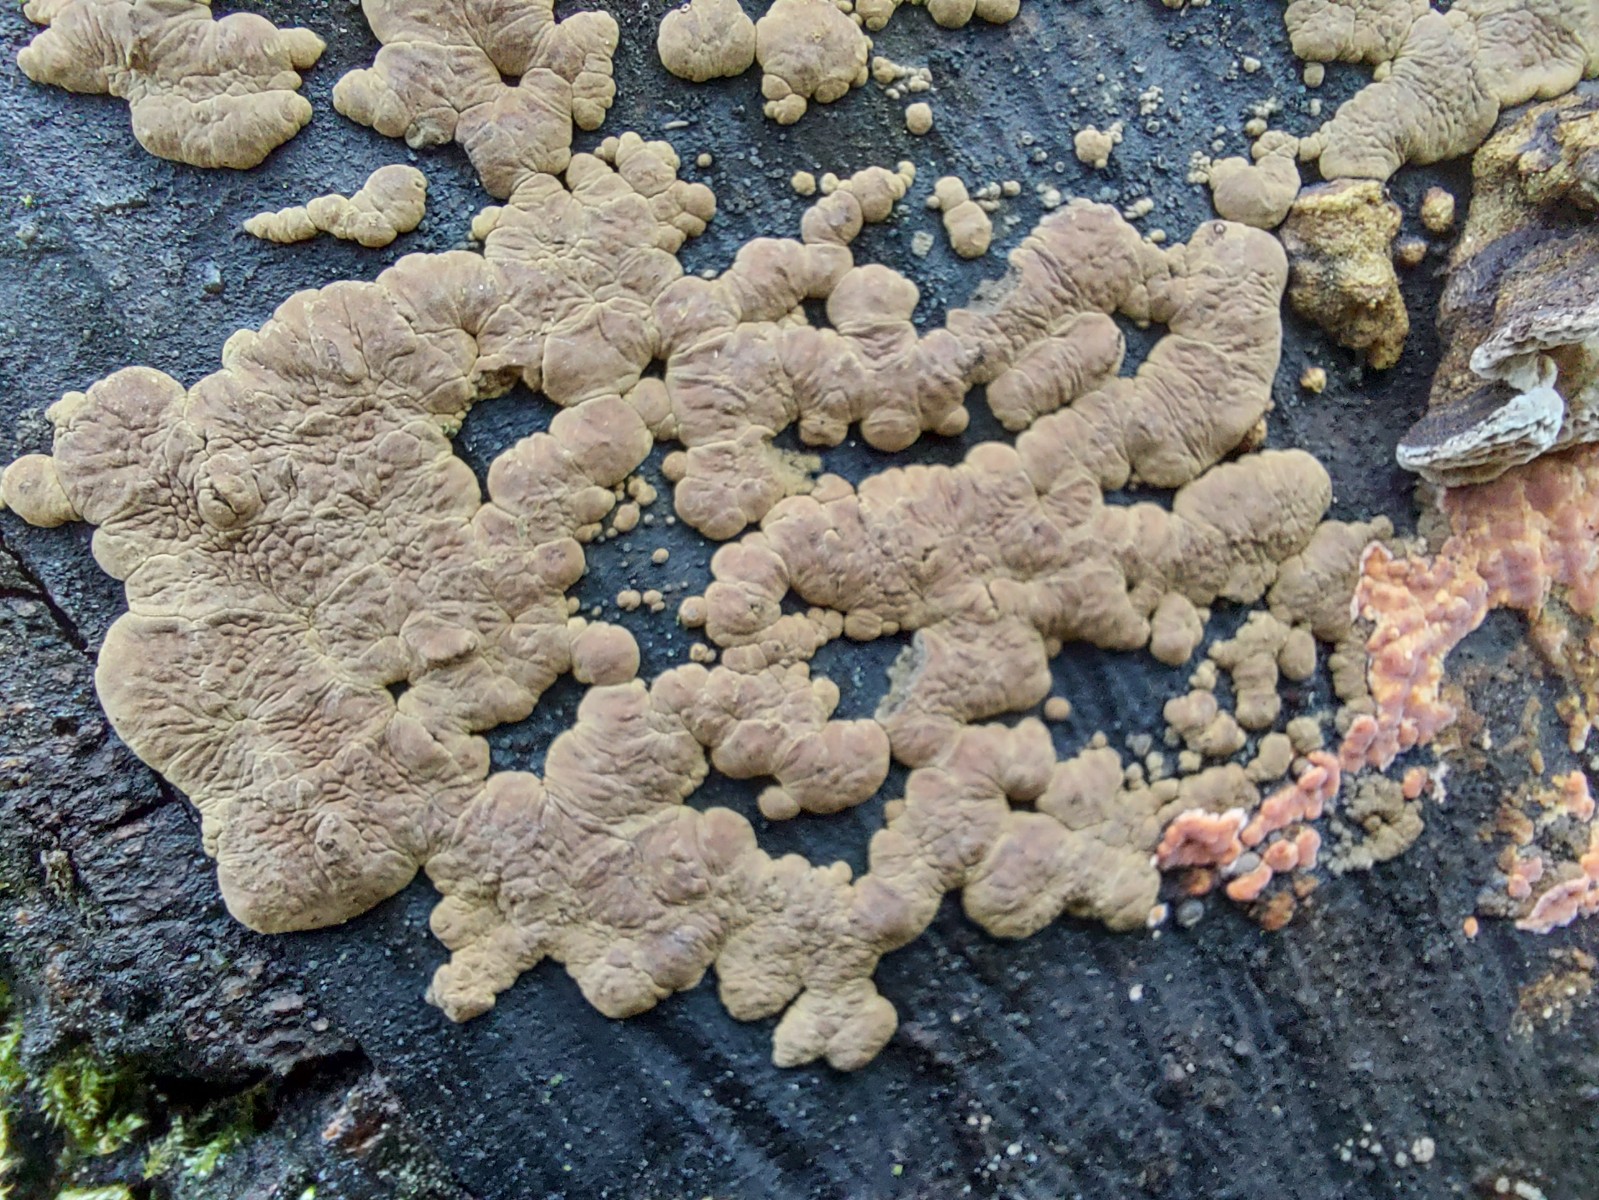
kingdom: Fungi
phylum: Ascomycota
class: Sordariomycetes
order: Xylariales
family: Hypoxylaceae
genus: Jackrogersella
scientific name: Jackrogersella multiformis
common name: foranderlig kulbær
